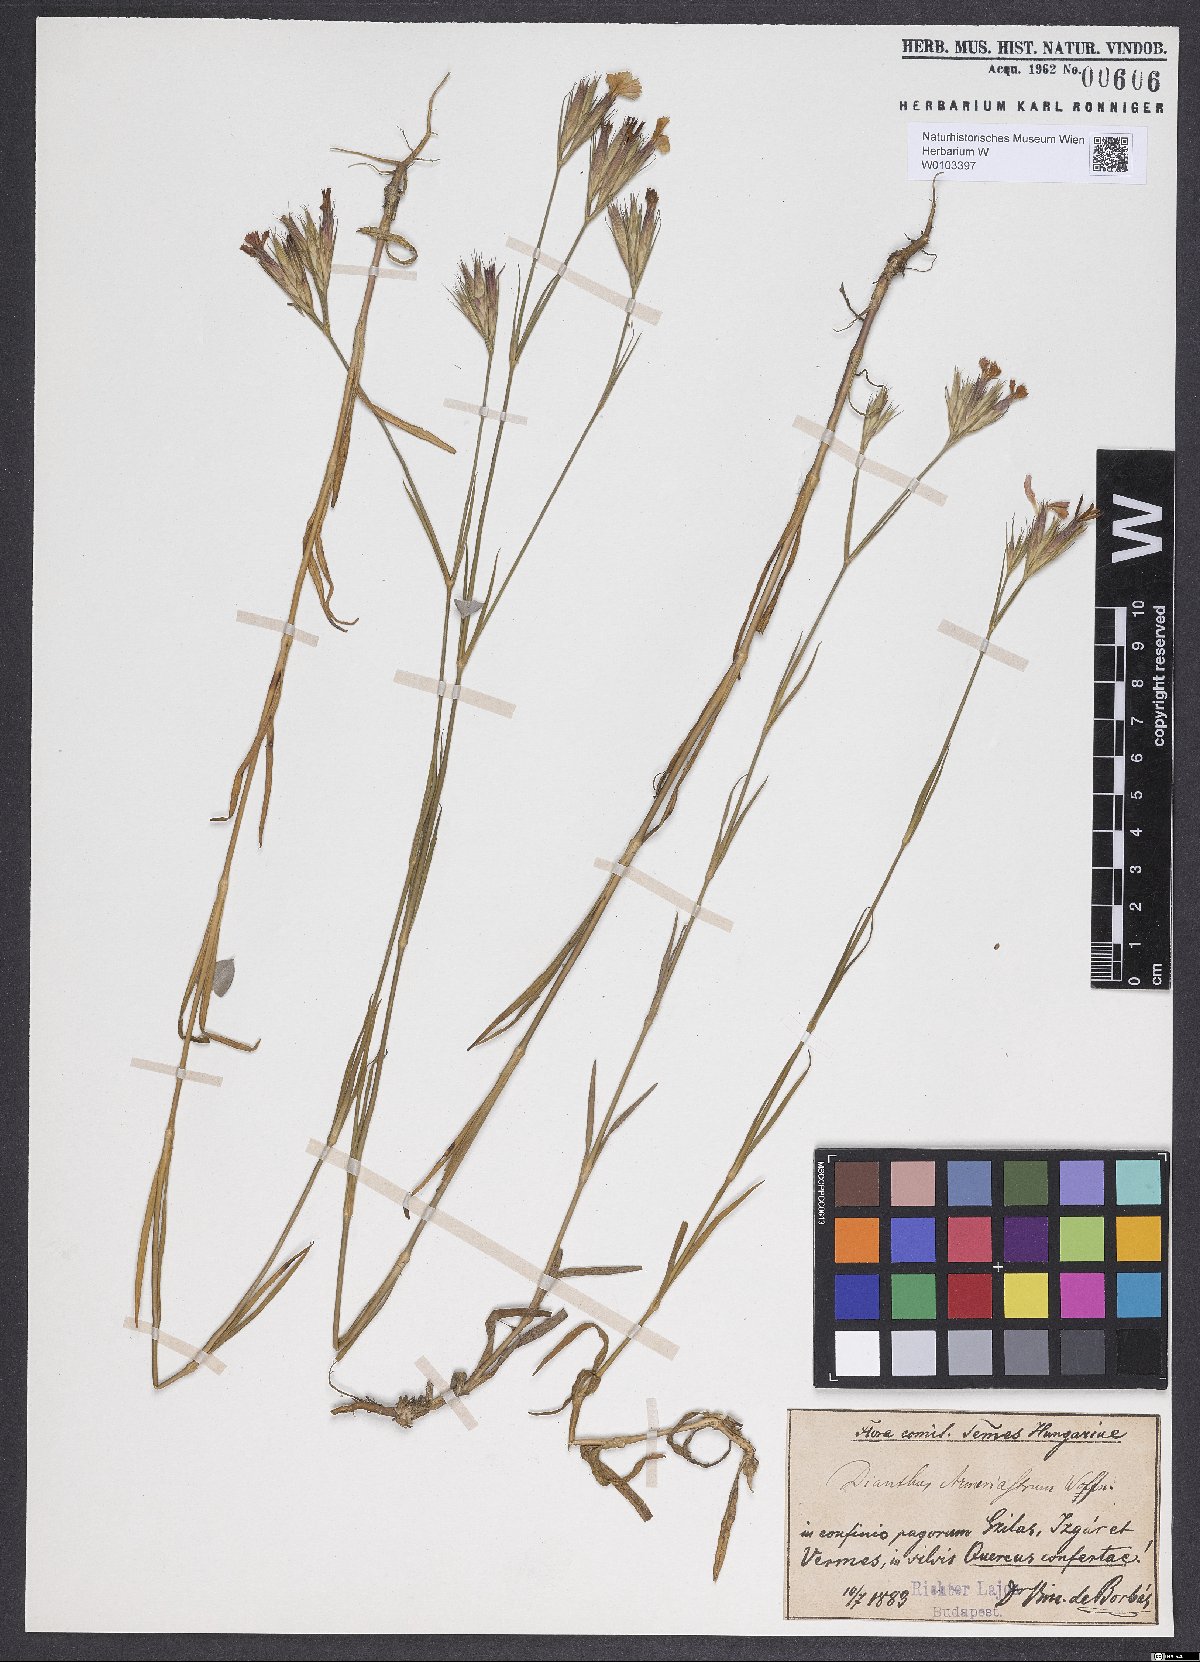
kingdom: Plantae
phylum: Tracheophyta
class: Magnoliopsida
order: Caryophyllales
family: Caryophyllaceae
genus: Dianthus
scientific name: Dianthus corymbosus
